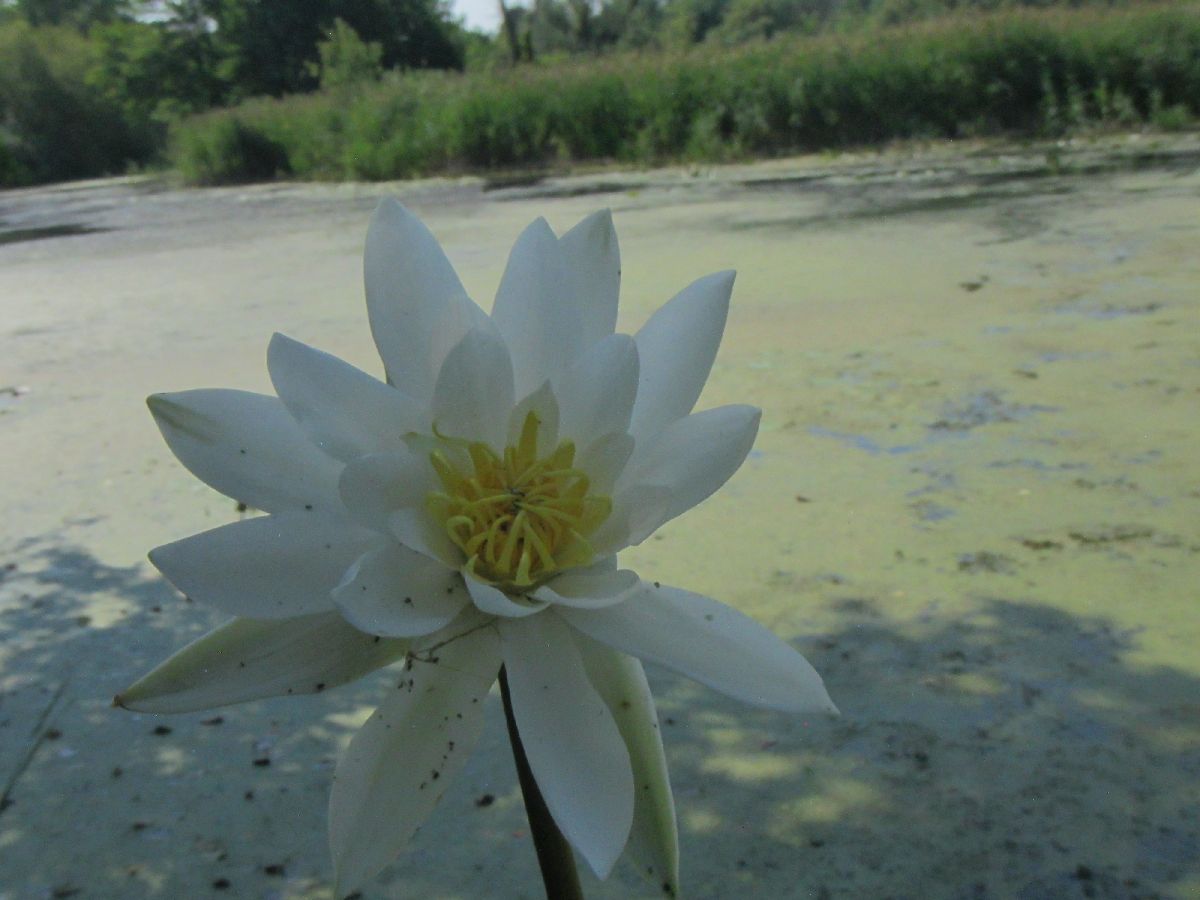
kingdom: Plantae
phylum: Tracheophyta
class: Magnoliopsida
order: Nymphaeales
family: Nymphaeaceae
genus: Nymphaea
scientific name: Nymphaea alba
